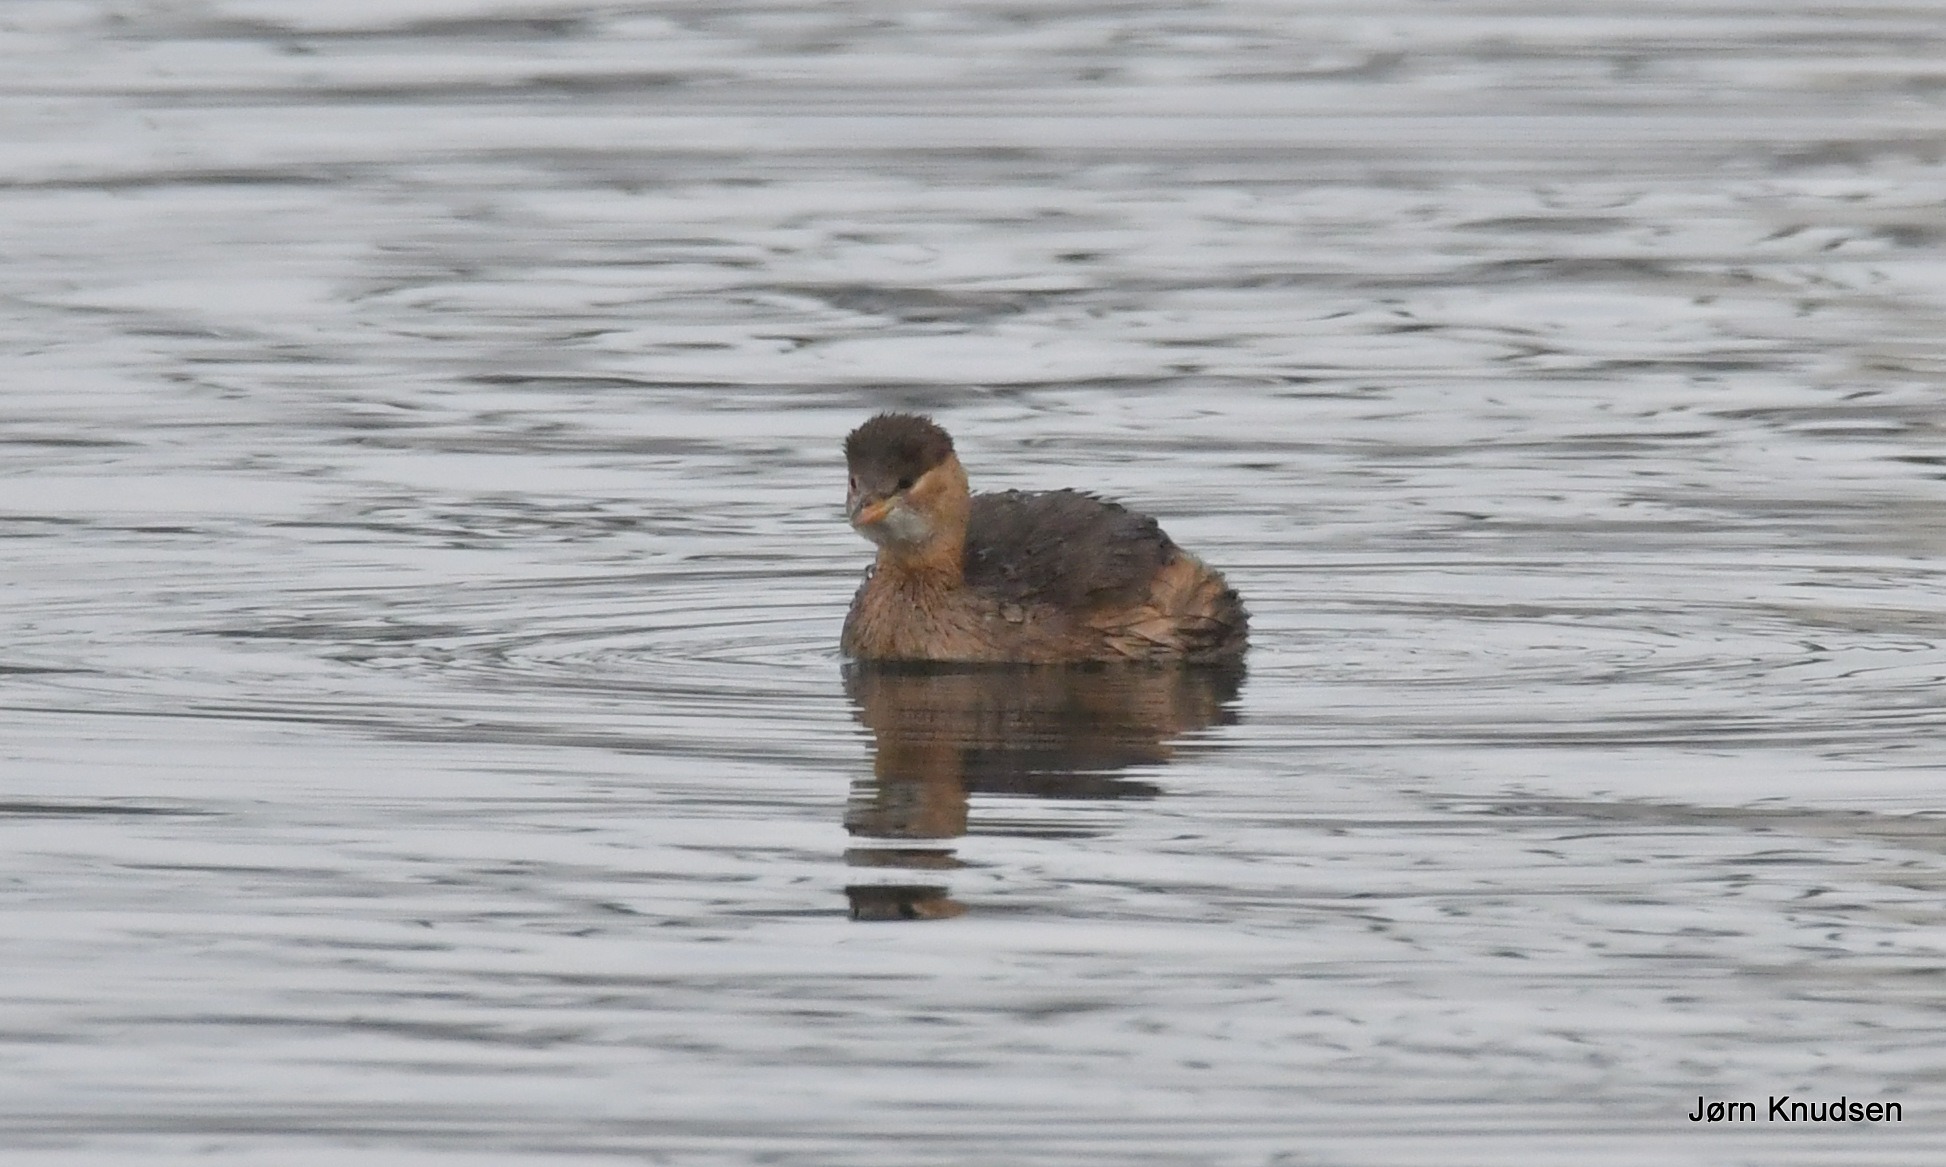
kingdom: Animalia
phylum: Chordata
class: Aves
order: Podicipediformes
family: Podicipedidae
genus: Tachybaptus
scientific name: Tachybaptus ruficollis
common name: Lille lappedykker
